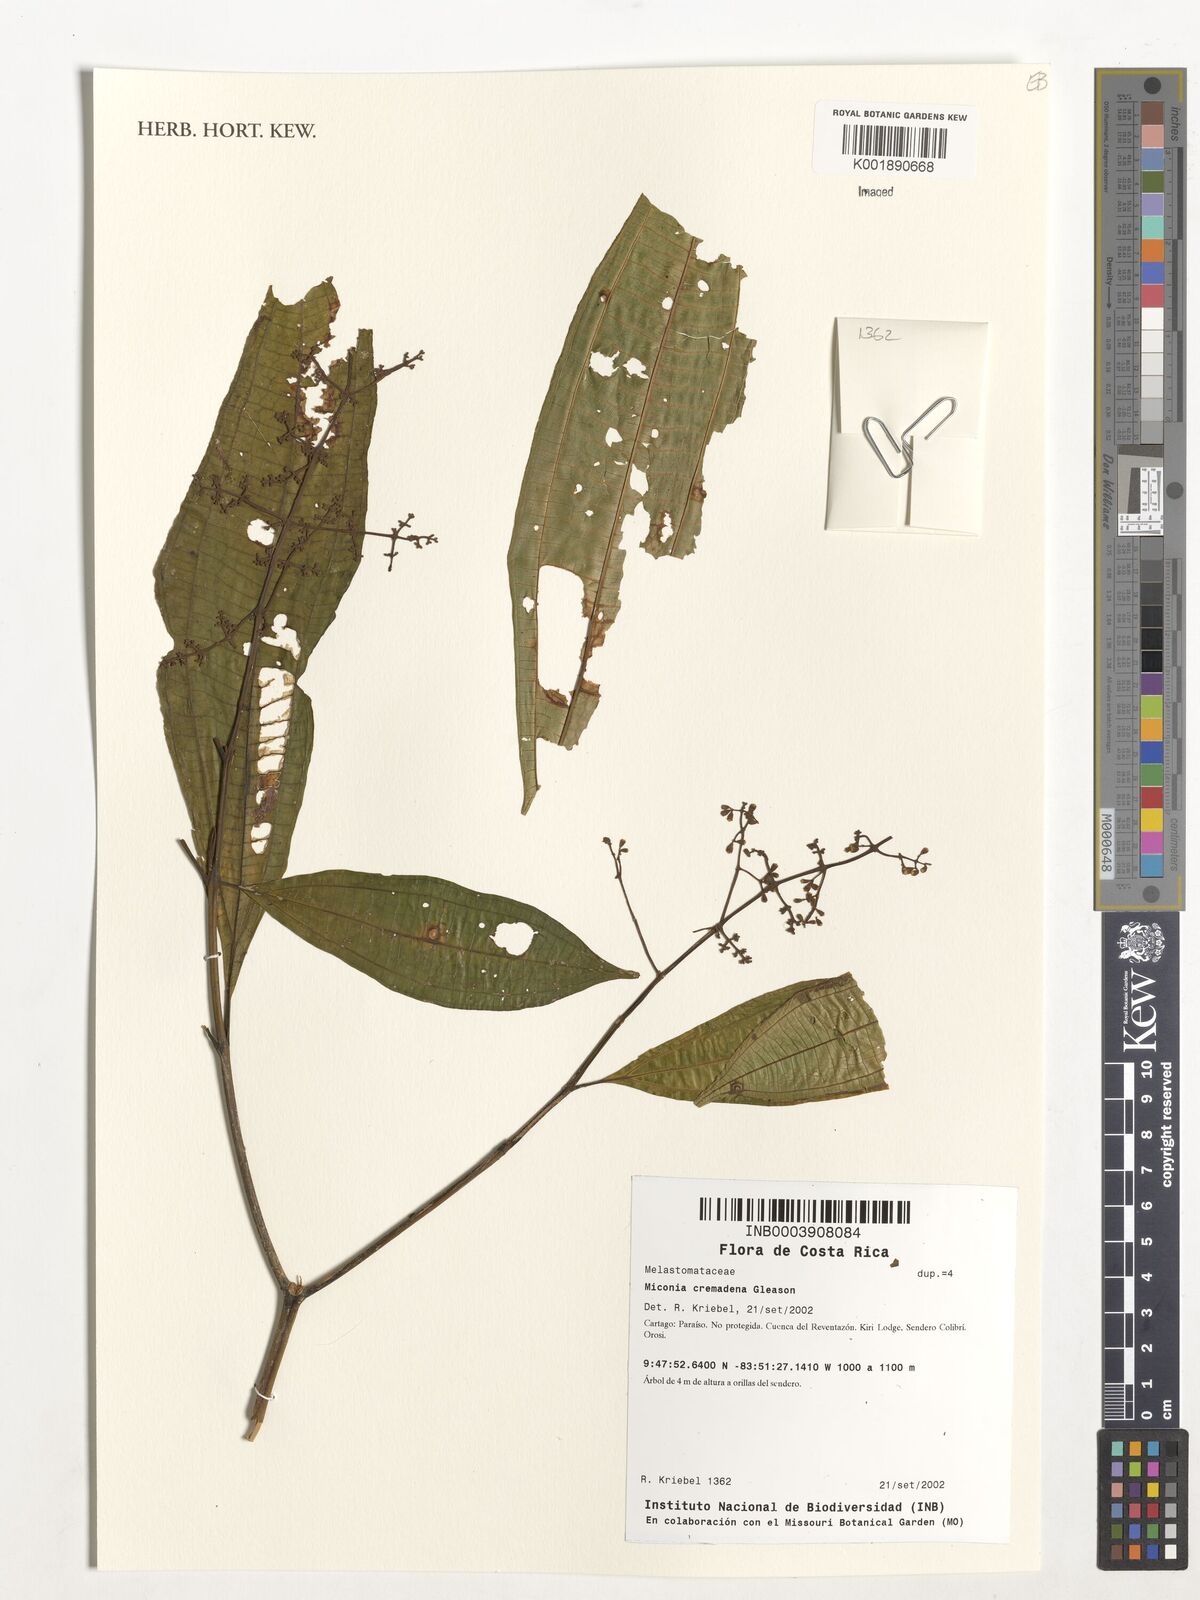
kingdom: Plantae
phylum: Tracheophyta
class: Magnoliopsida
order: Myrtales
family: Melastomataceae
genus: Miconia
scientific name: Miconia cremadena
